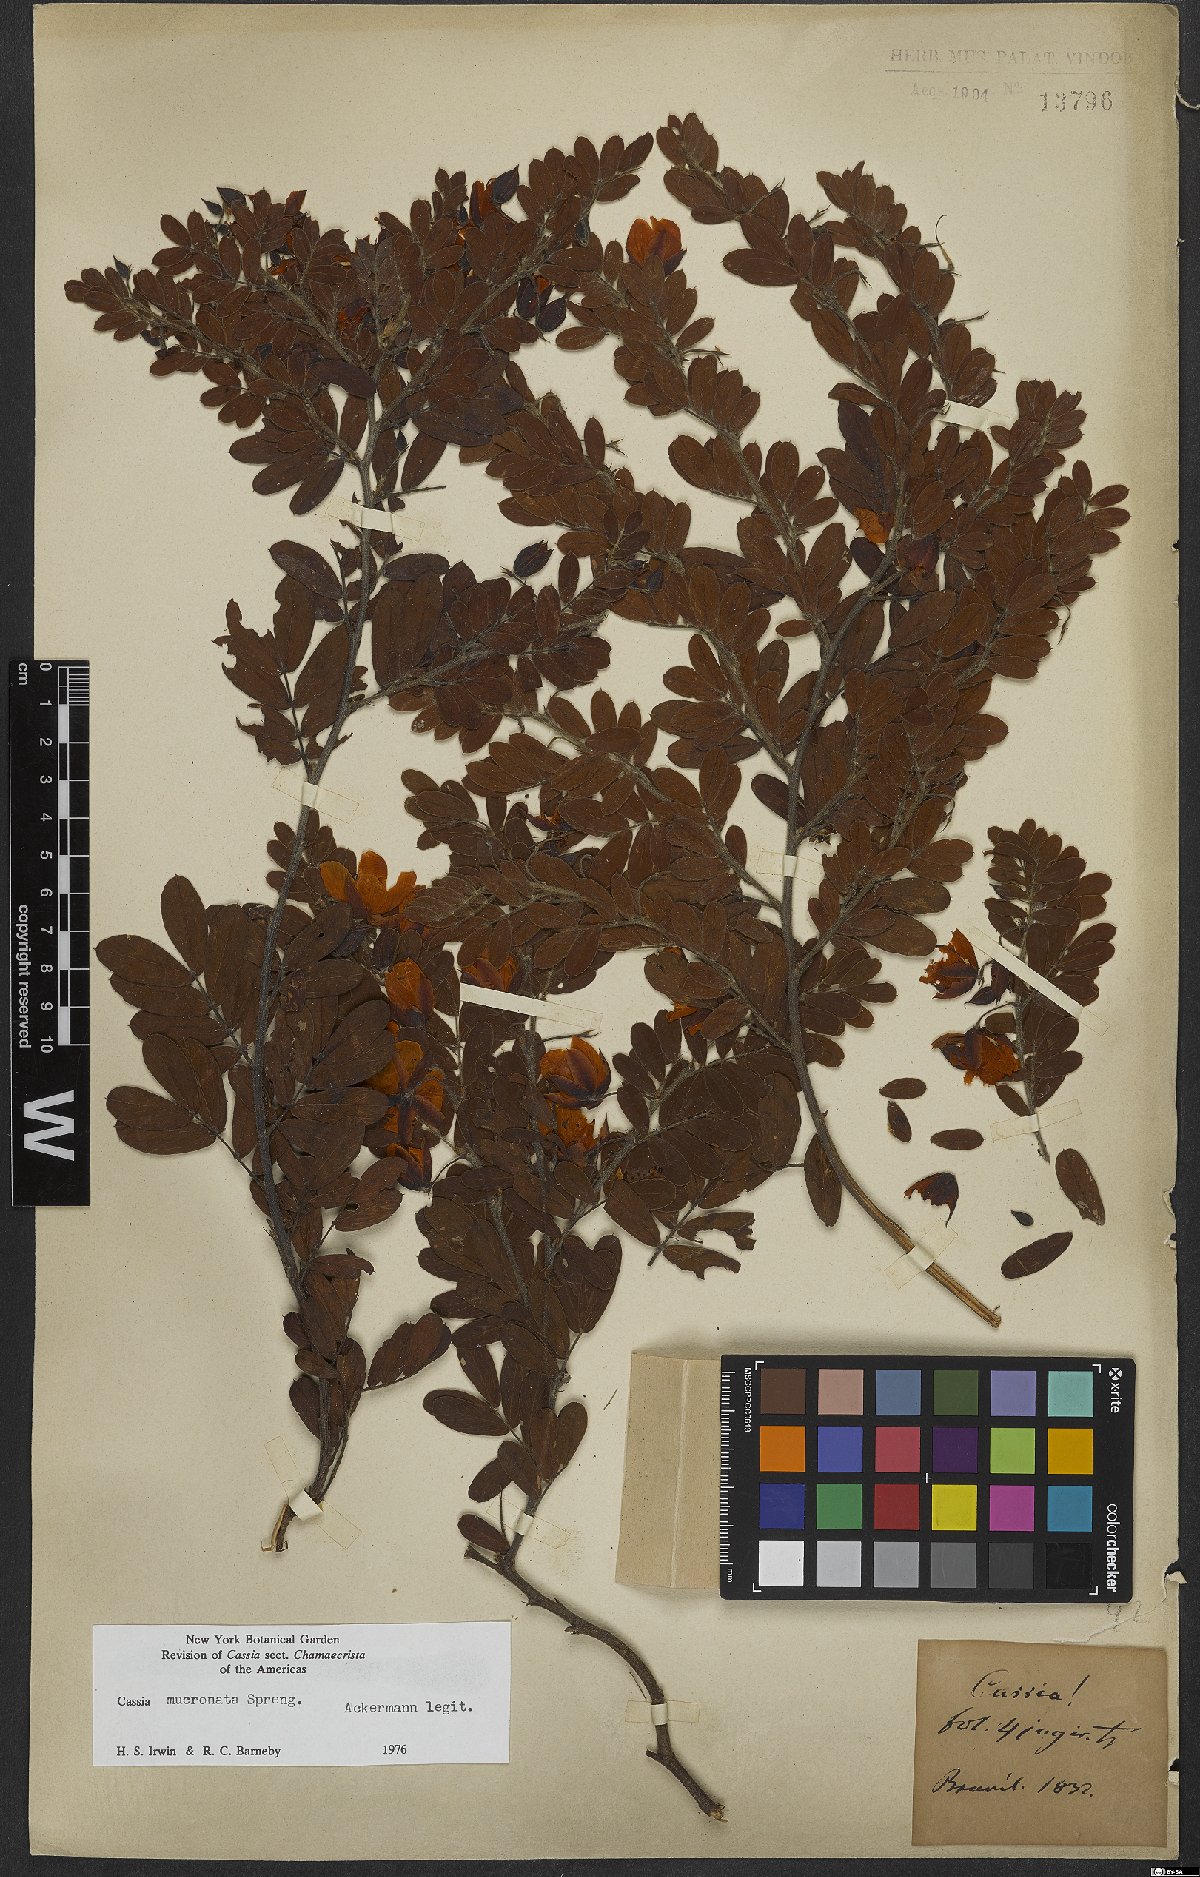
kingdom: Plantae
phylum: Tracheophyta
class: Magnoliopsida
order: Fabales
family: Fabaceae
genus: Chamaecrista
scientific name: Chamaecrista mucronata
